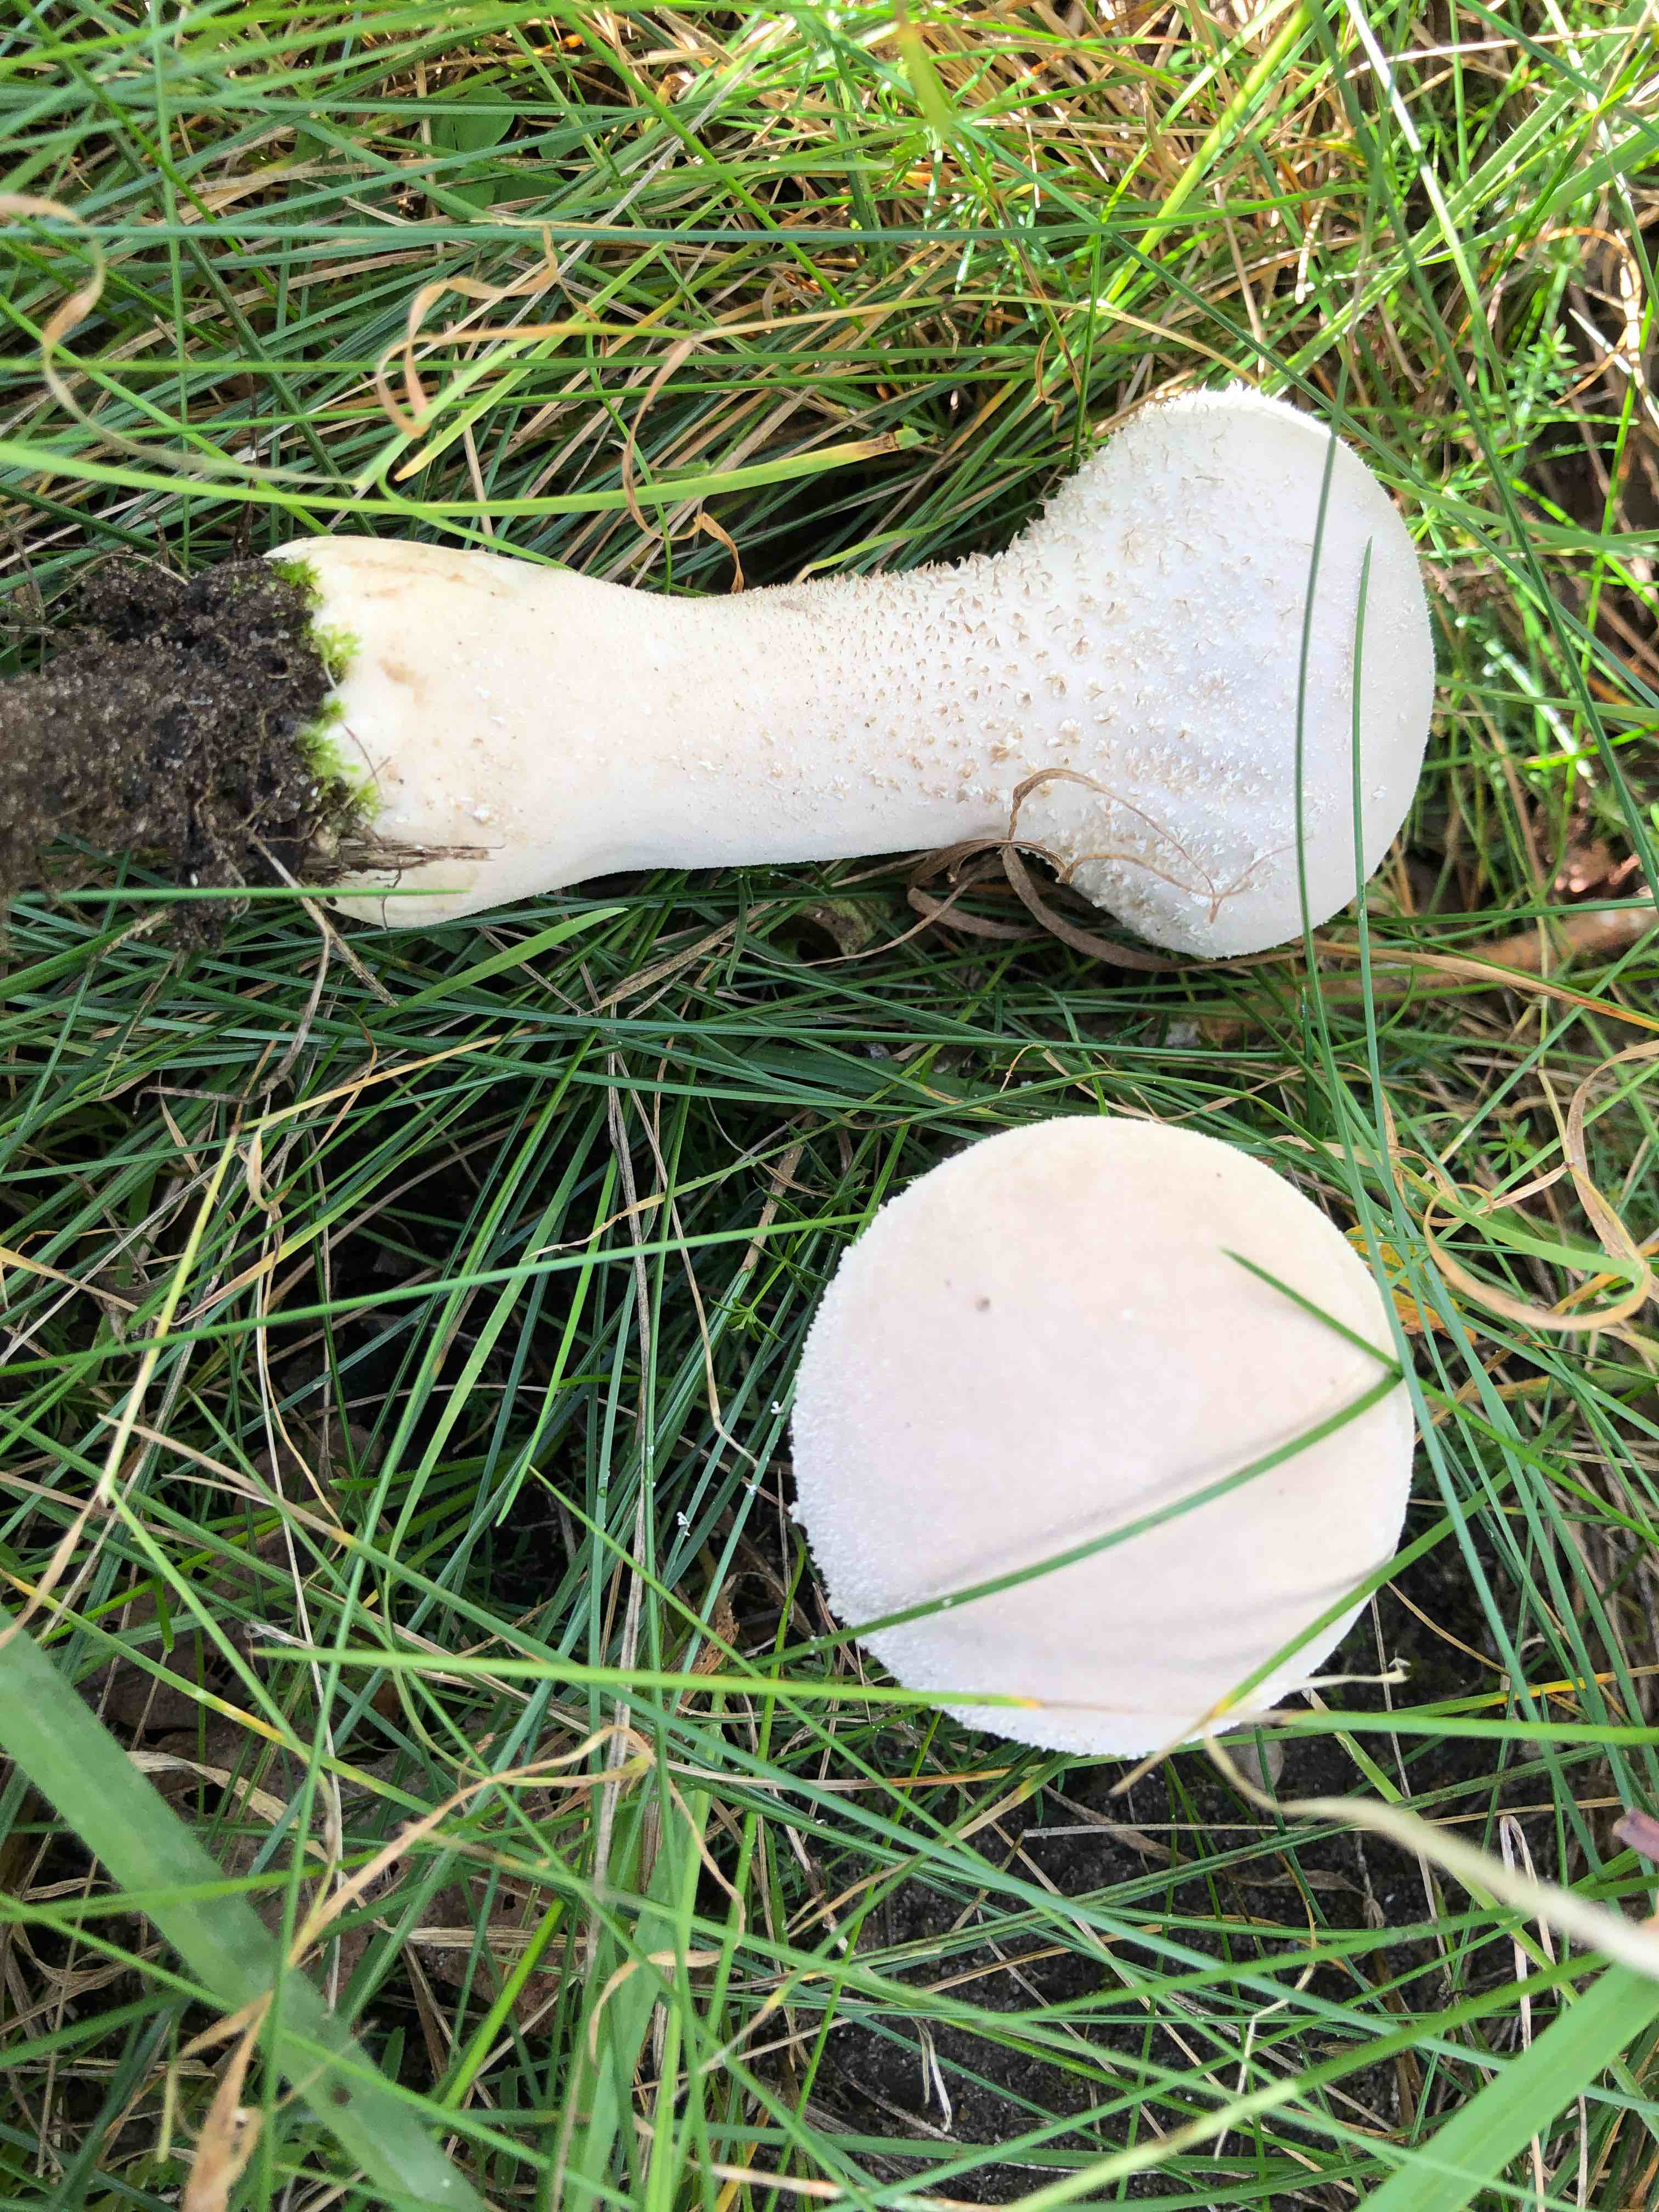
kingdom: Fungi
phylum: Basidiomycota
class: Agaricomycetes
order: Agaricales
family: Lycoperdaceae
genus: Lycoperdon
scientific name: Lycoperdon excipuliforme
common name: højstokket støvbold
